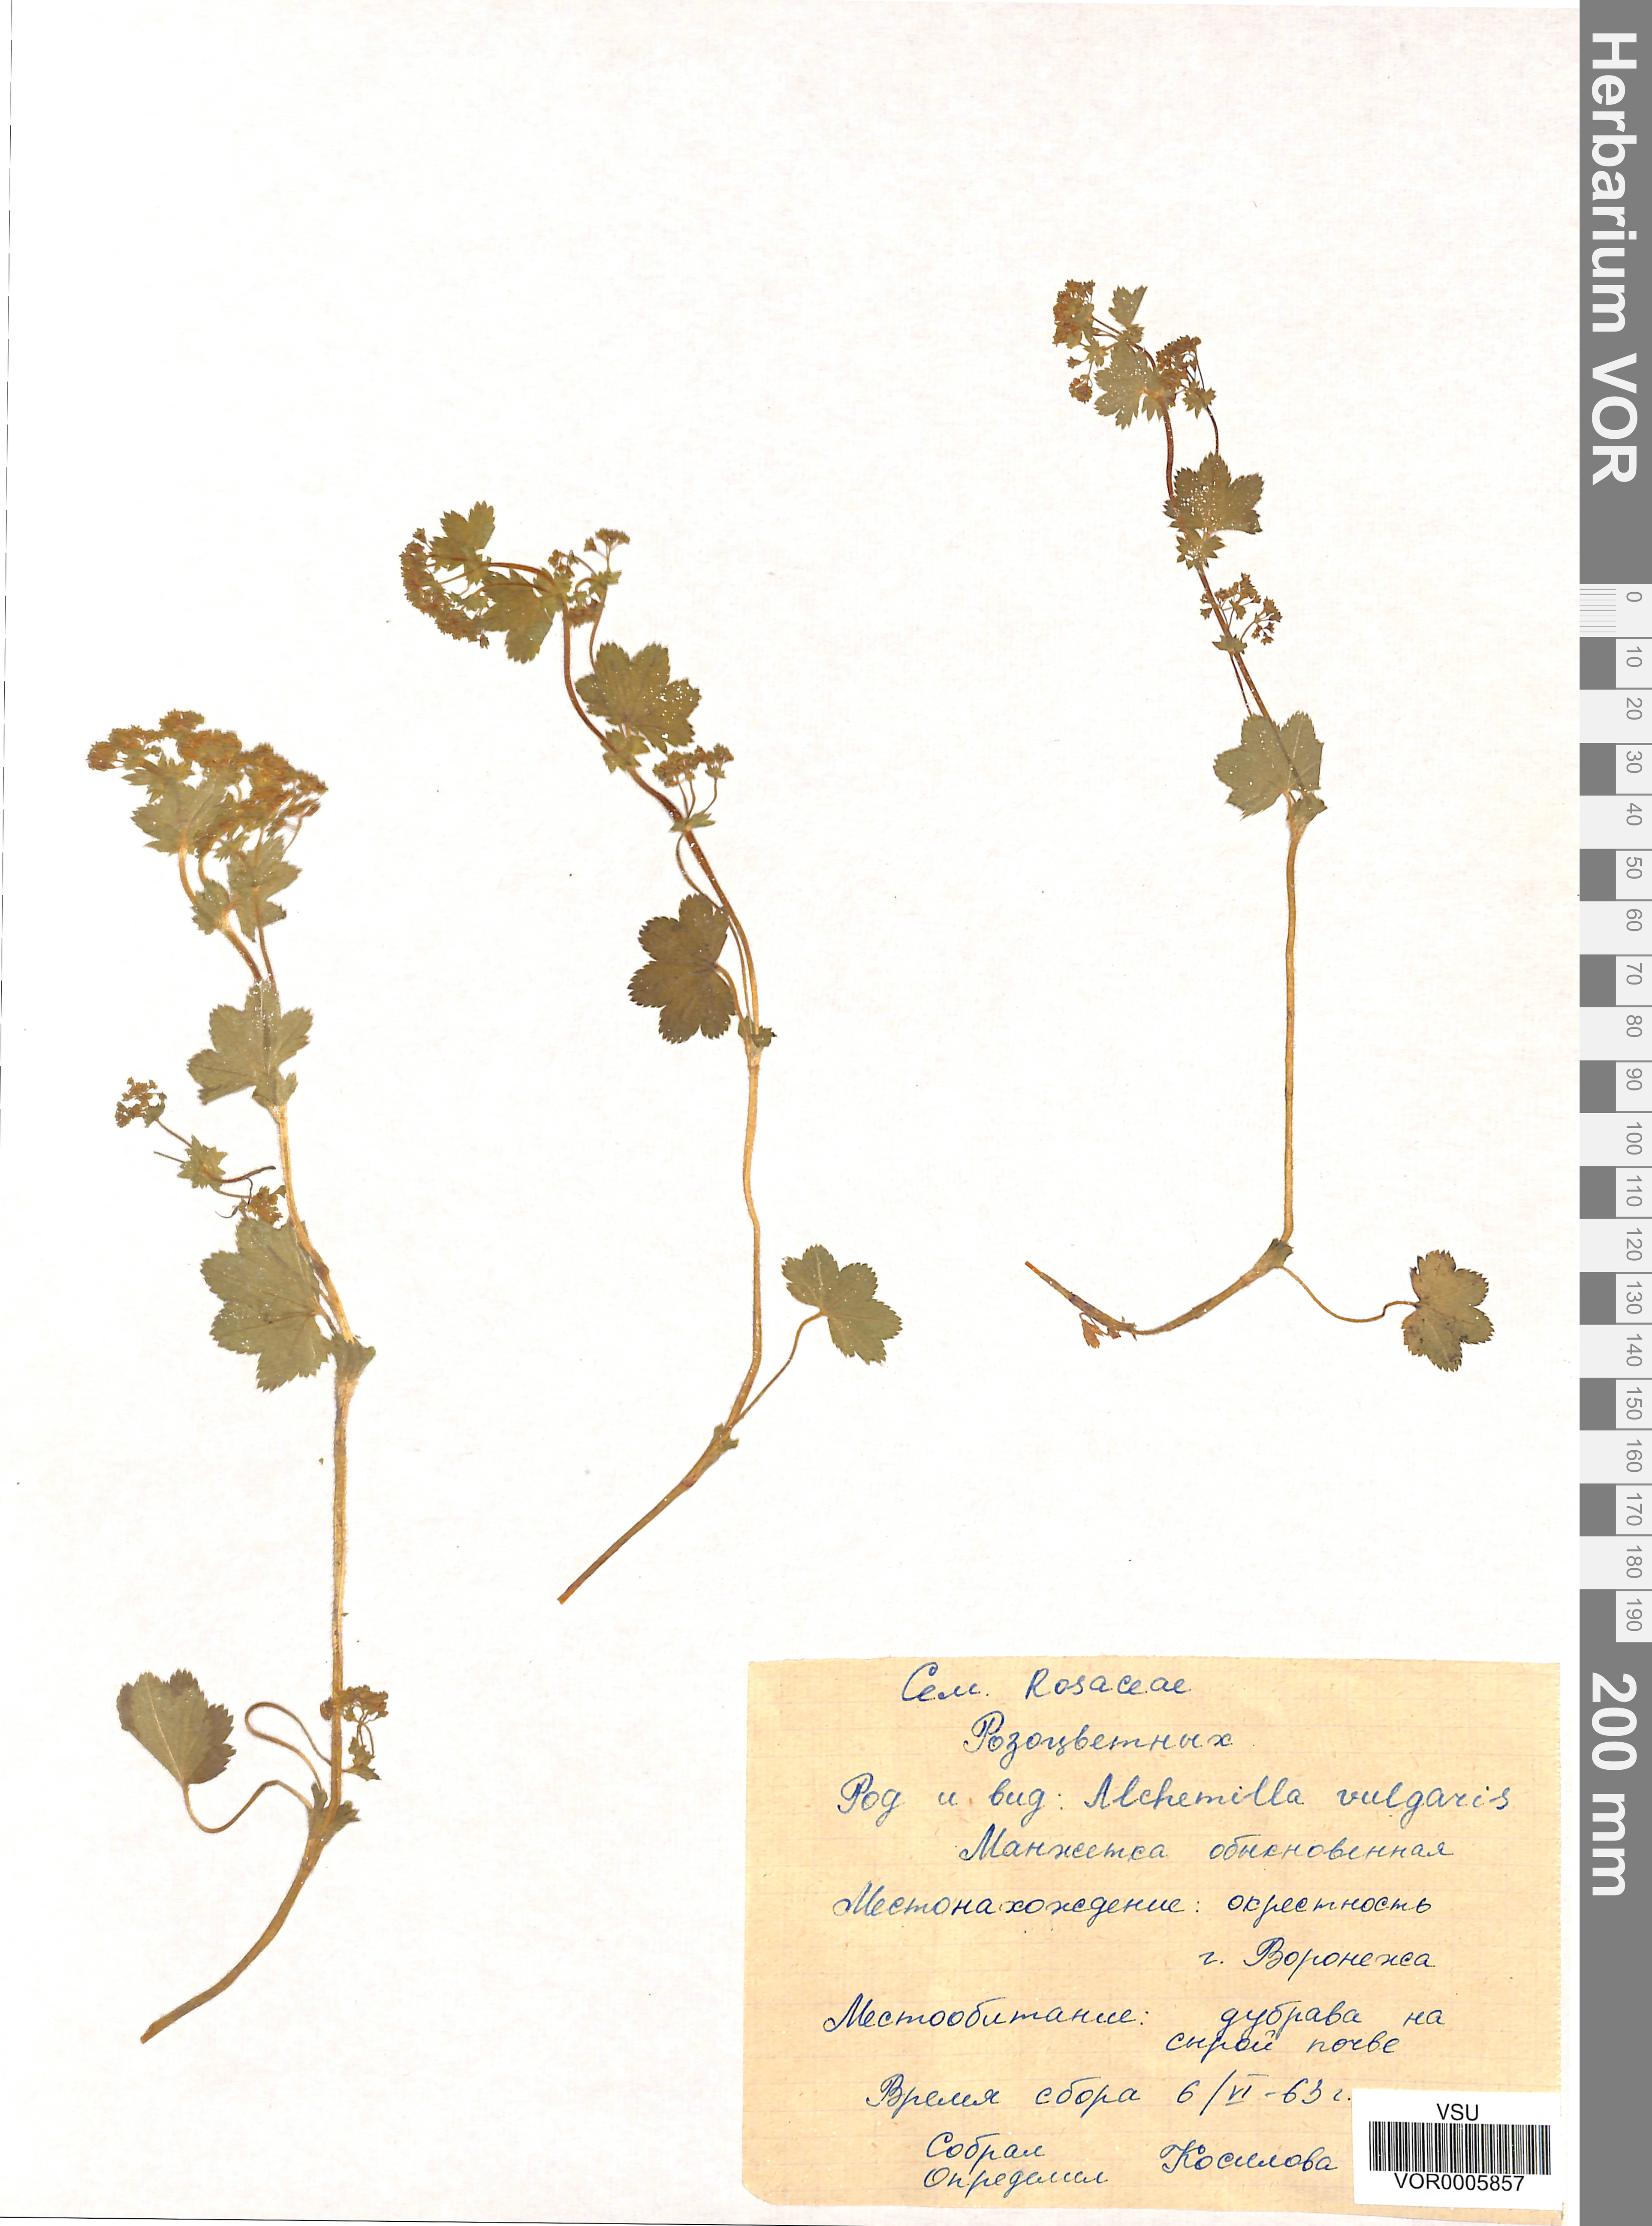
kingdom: Plantae
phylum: Tracheophyta
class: Magnoliopsida
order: Rosales
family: Rosaceae
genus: Alchemilla
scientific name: Alchemilla vulgaris
